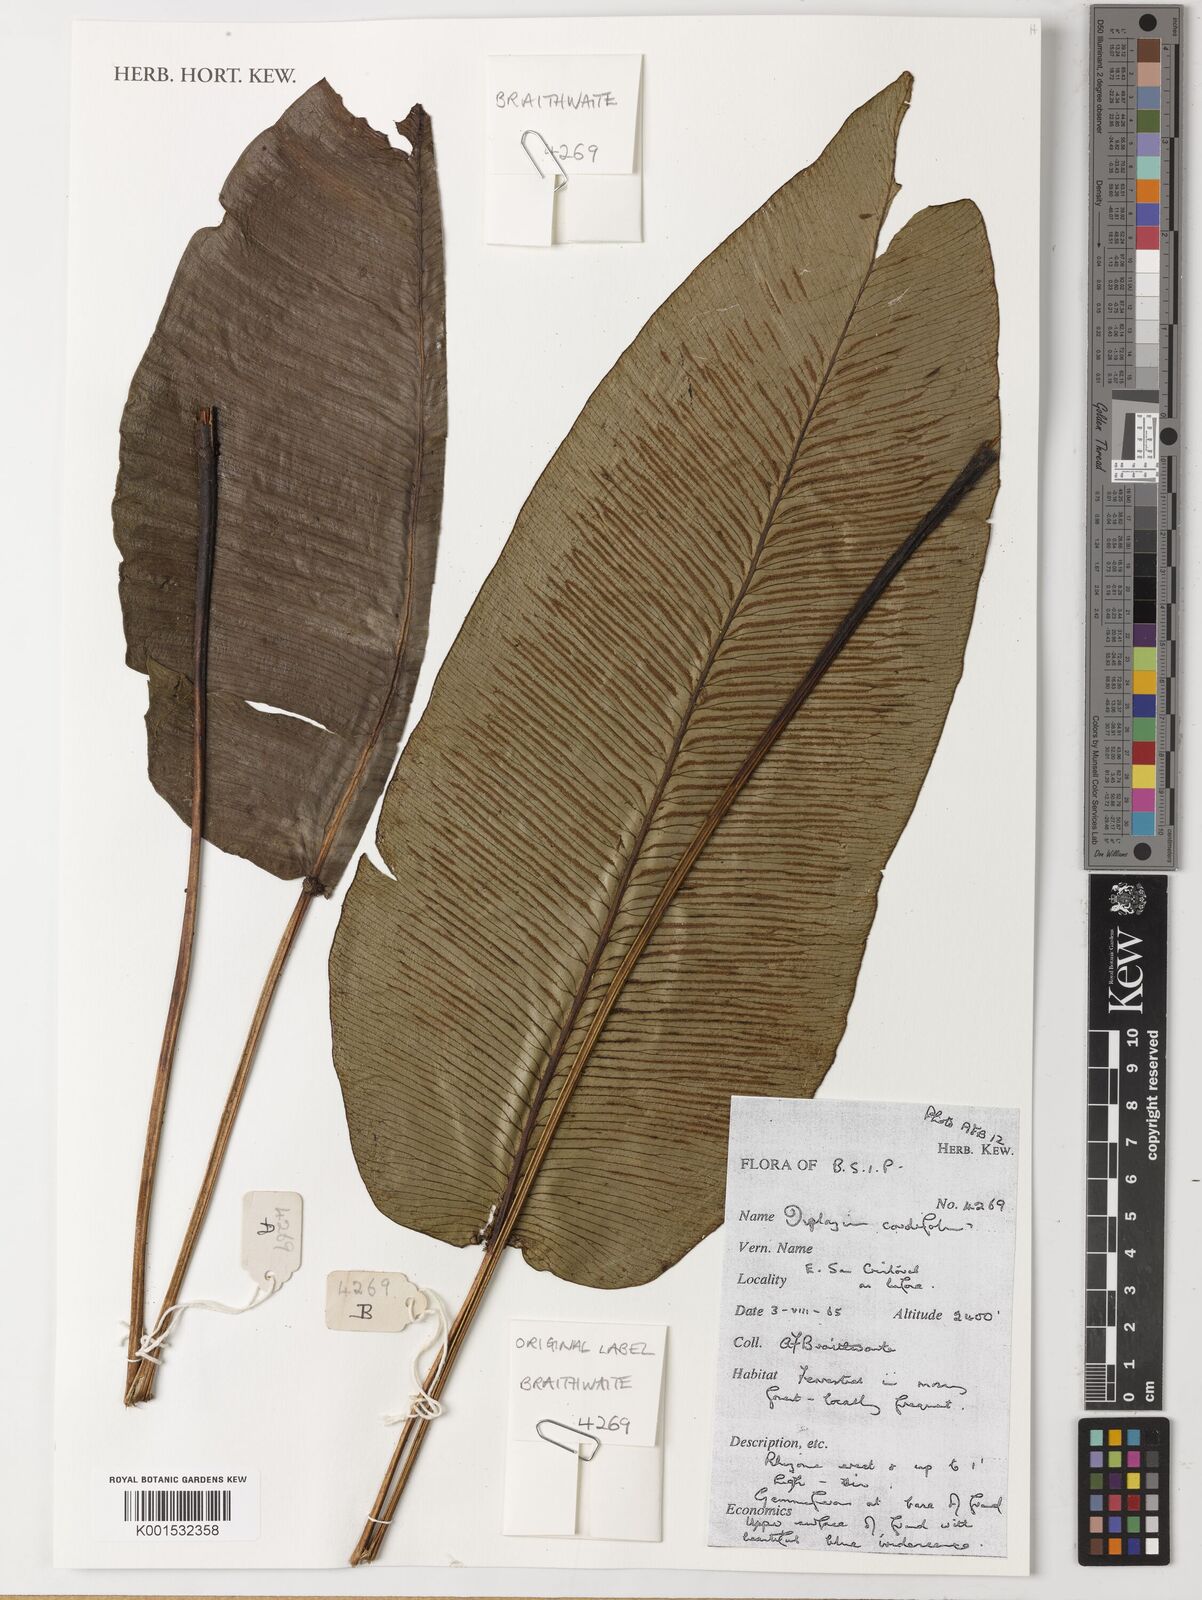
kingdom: Plantae
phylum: Tracheophyta
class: Polypodiopsida
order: Polypodiales
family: Athyriaceae
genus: Diplazium
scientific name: Diplazium cordifolium
